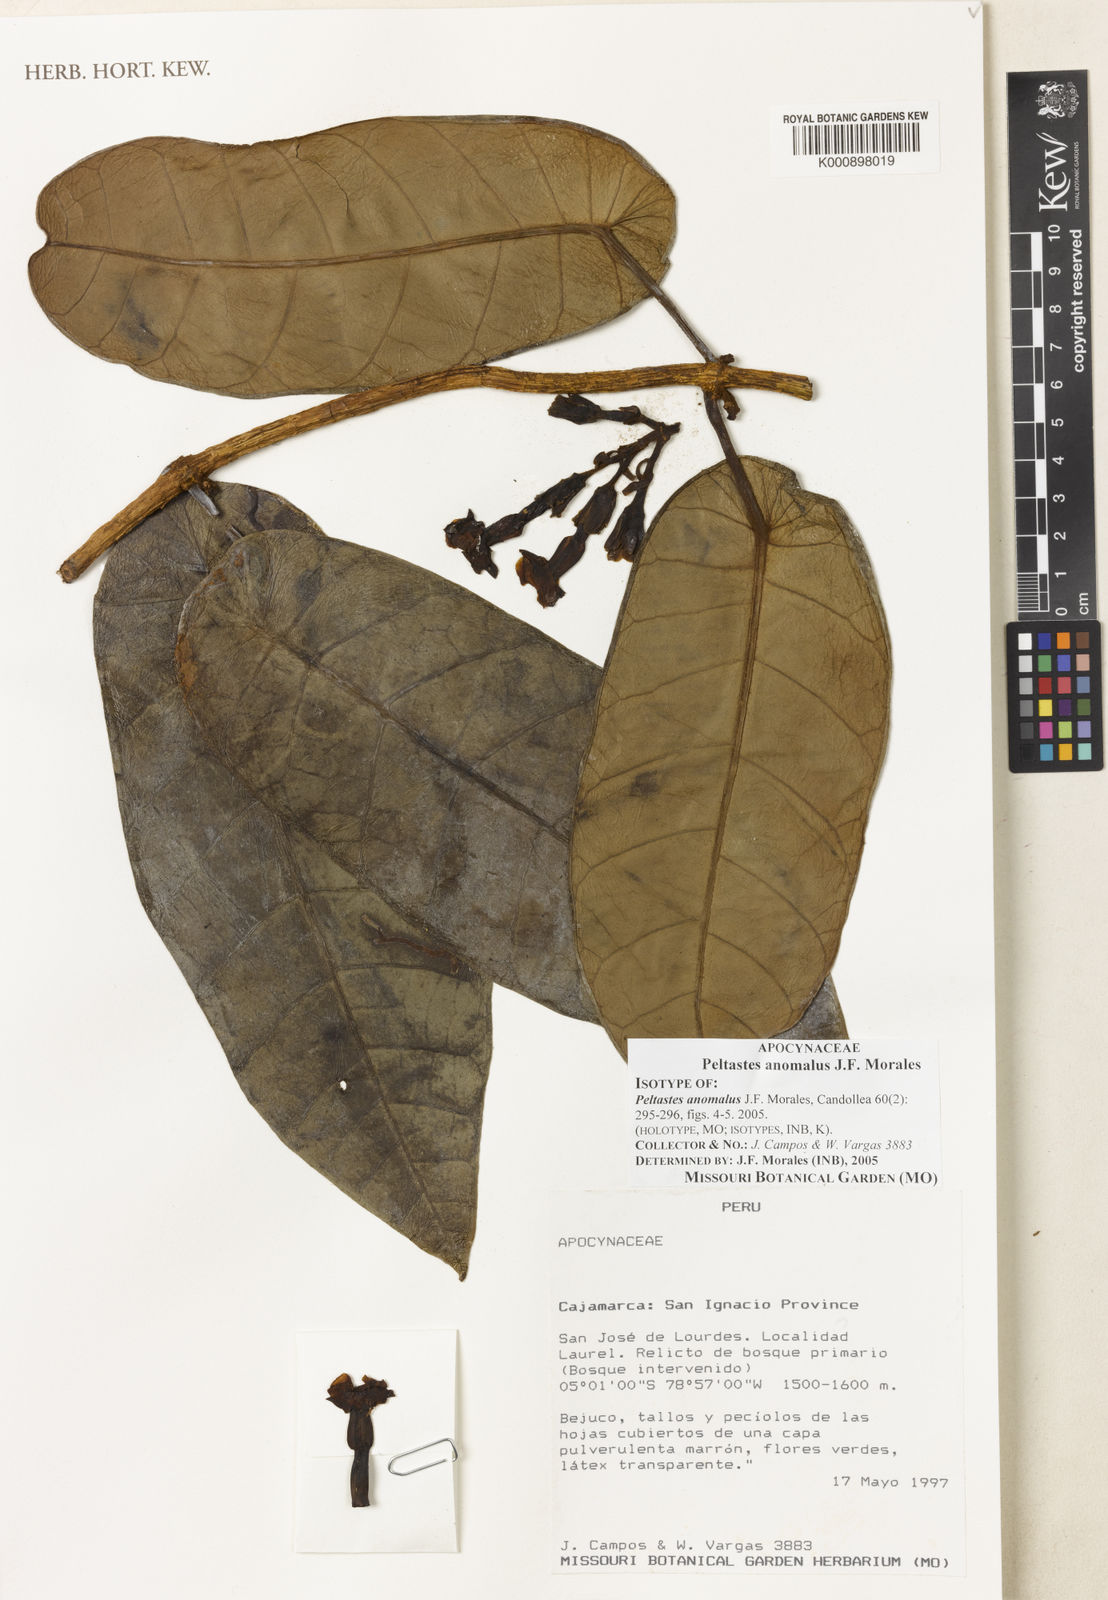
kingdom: Plantae
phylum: Tracheophyta
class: Magnoliopsida
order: Gentianales
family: Apocynaceae
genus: Macropharynx
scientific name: Macropharynx abnorma
